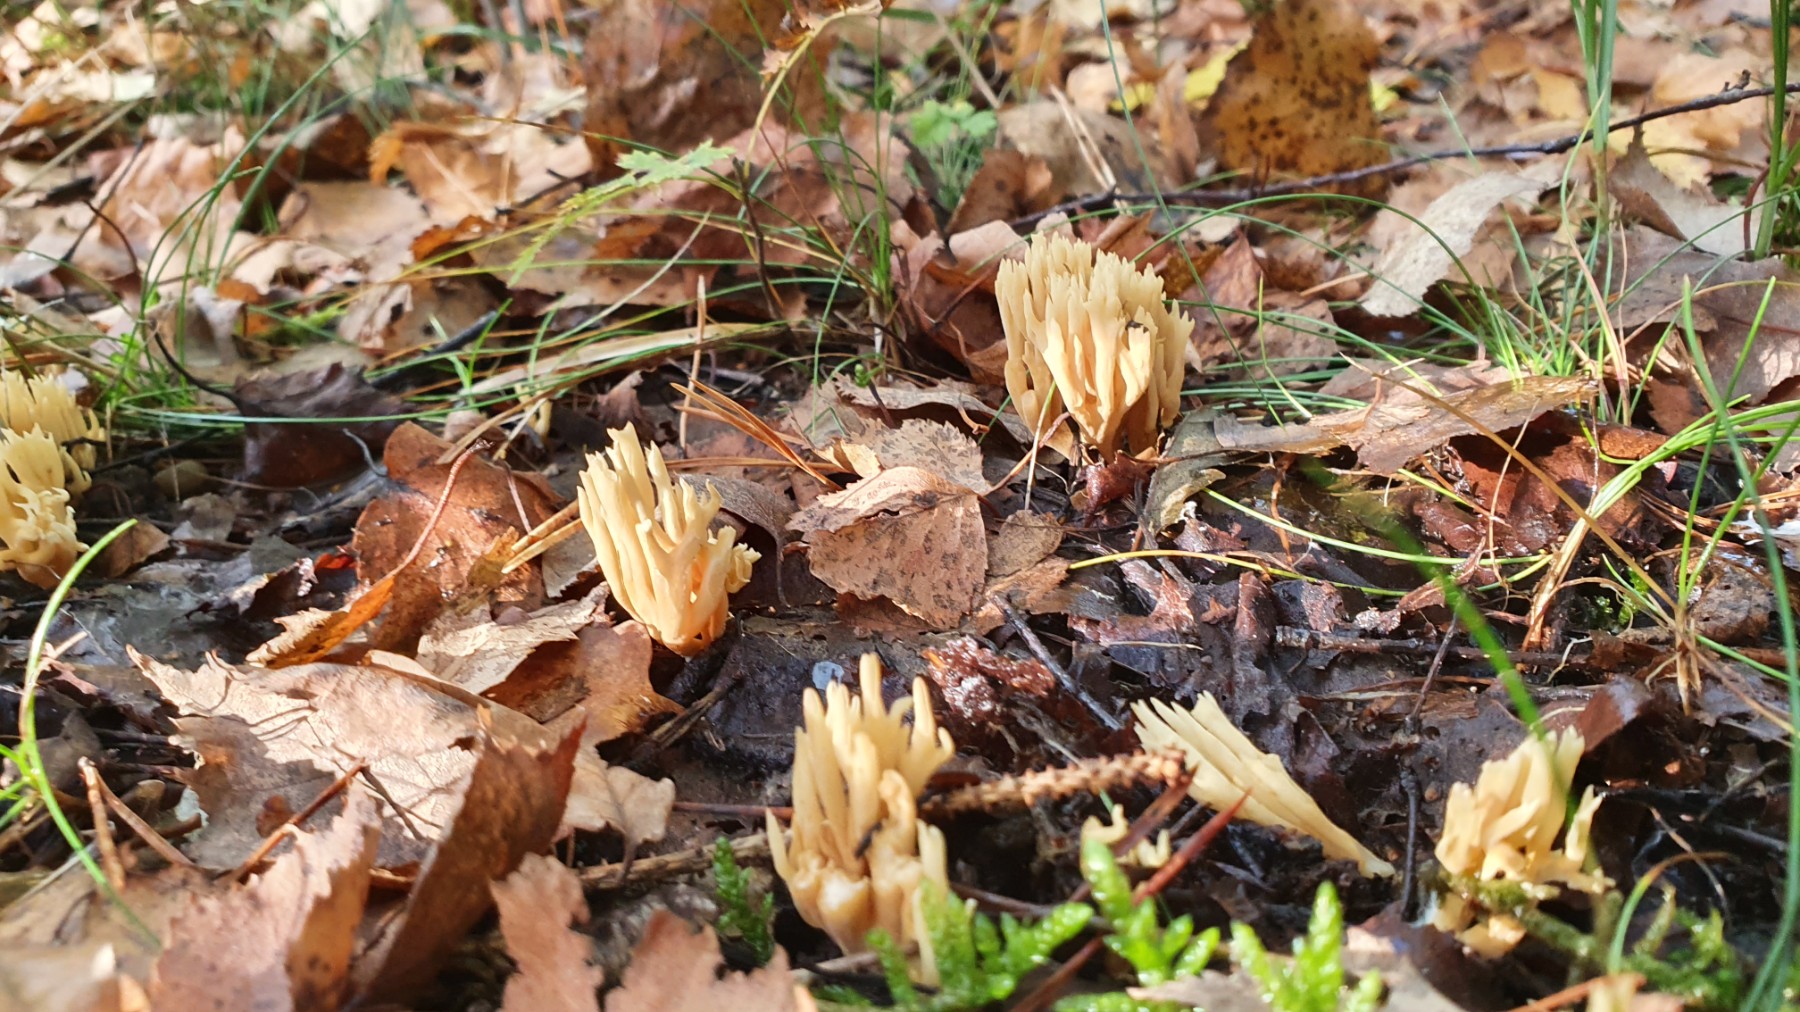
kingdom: Fungi
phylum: Basidiomycota
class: Agaricomycetes
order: Gomphales
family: Gomphaceae
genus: Ramaria
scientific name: Ramaria stricta
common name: rank koralsvamp
